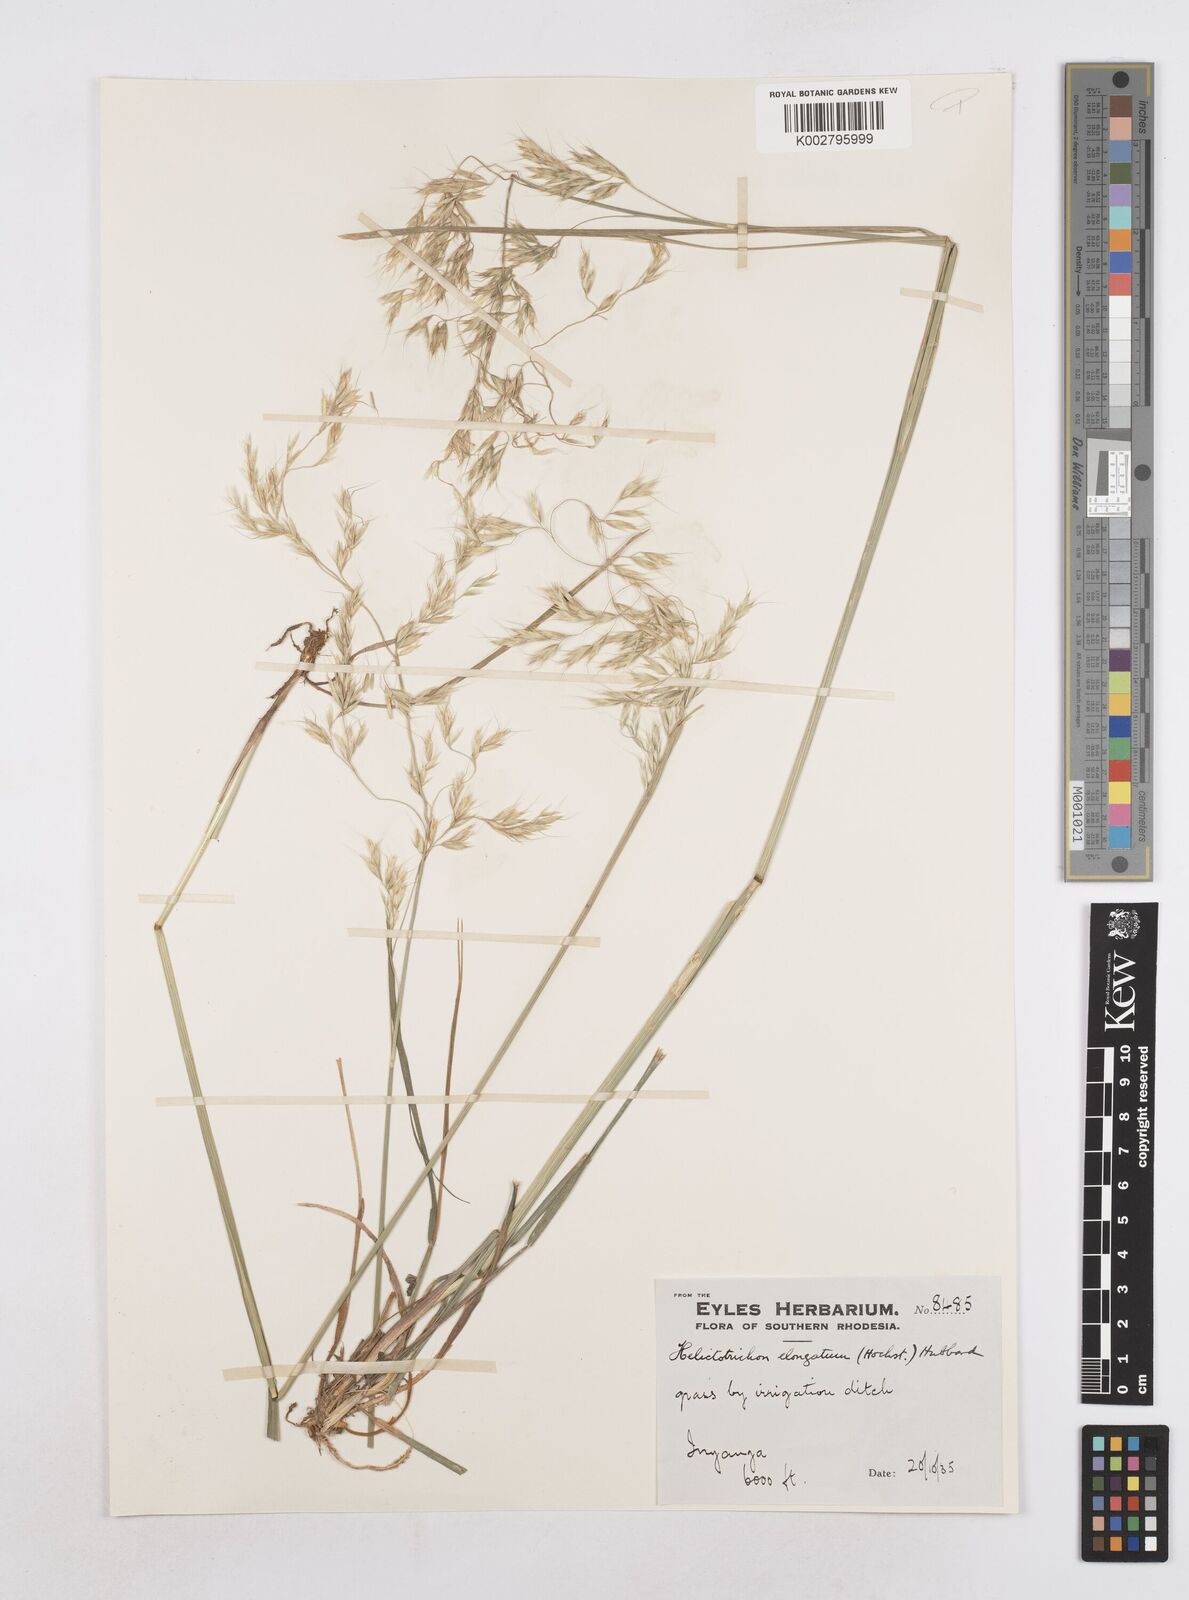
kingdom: Plantae
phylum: Tracheophyta
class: Liliopsida
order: Poales
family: Poaceae
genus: Trisetopsis
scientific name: Trisetopsis elongata
